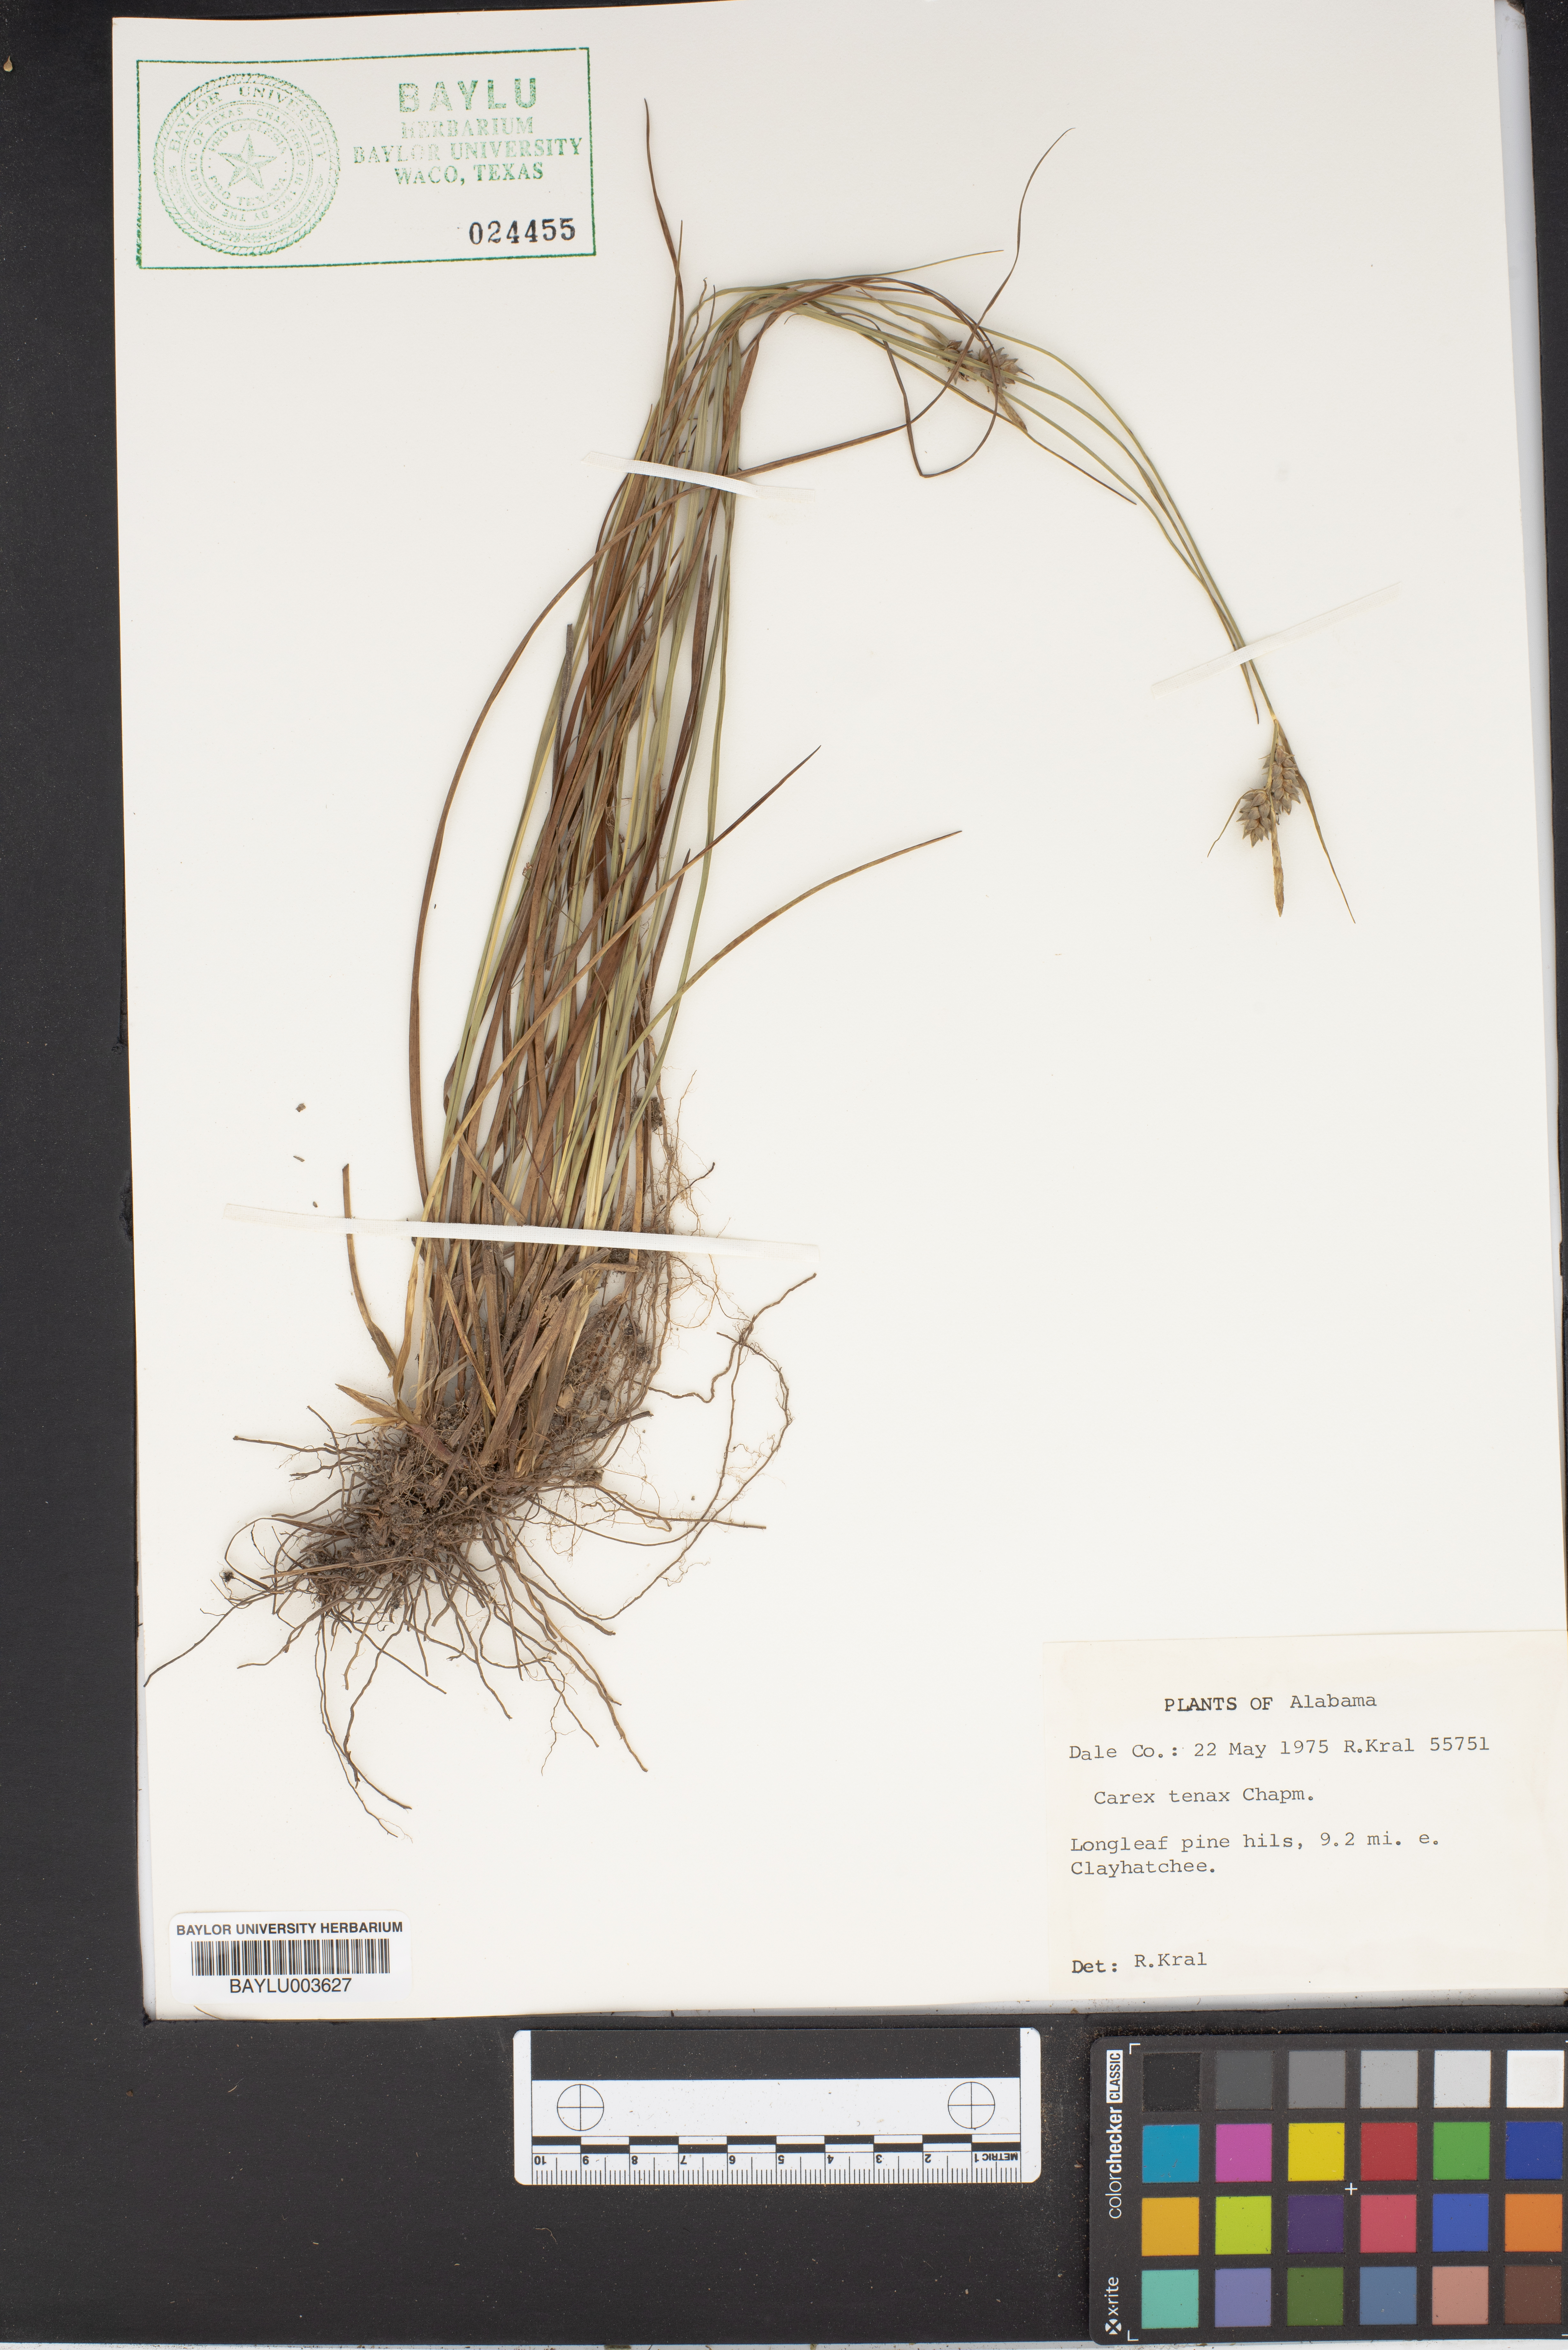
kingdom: Plantae
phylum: Tracheophyta
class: Liliopsida
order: Poales
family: Cyperaceae
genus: Carex
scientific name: Carex tenax
